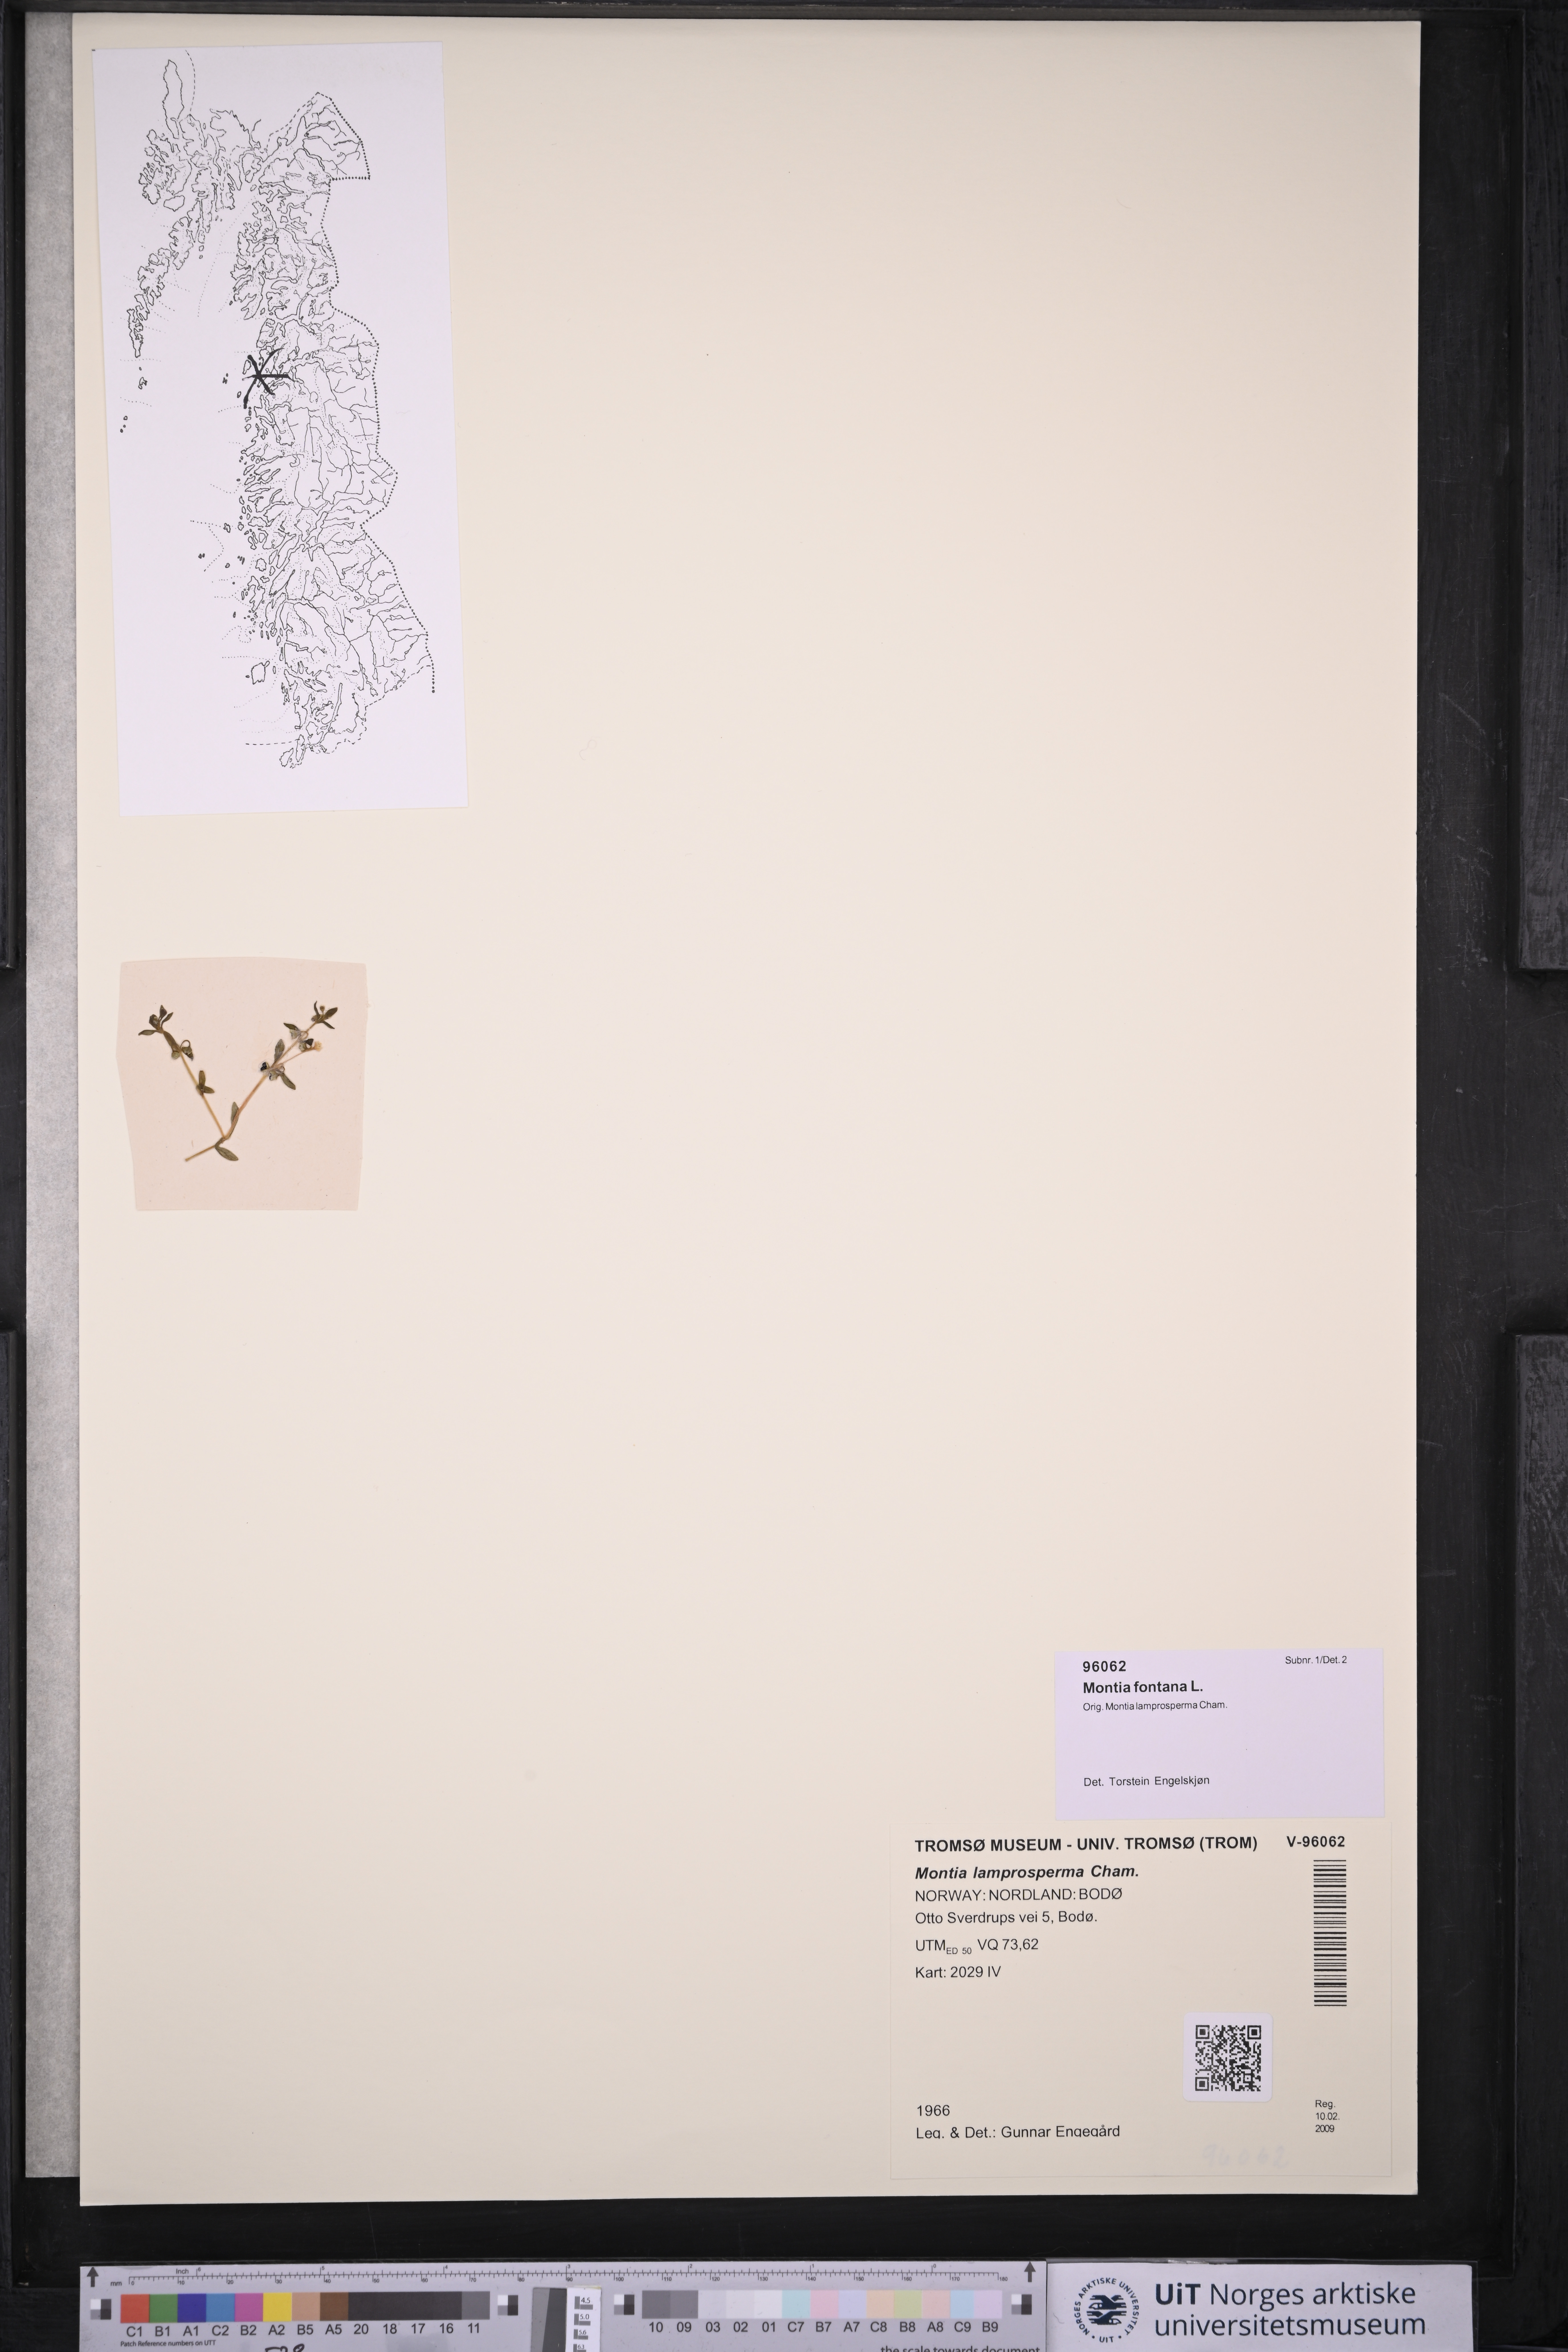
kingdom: Plantae
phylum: Tracheophyta
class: Magnoliopsida
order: Caryophyllales
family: Montiaceae
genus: Montia
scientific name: Montia fontana
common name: Blinks
